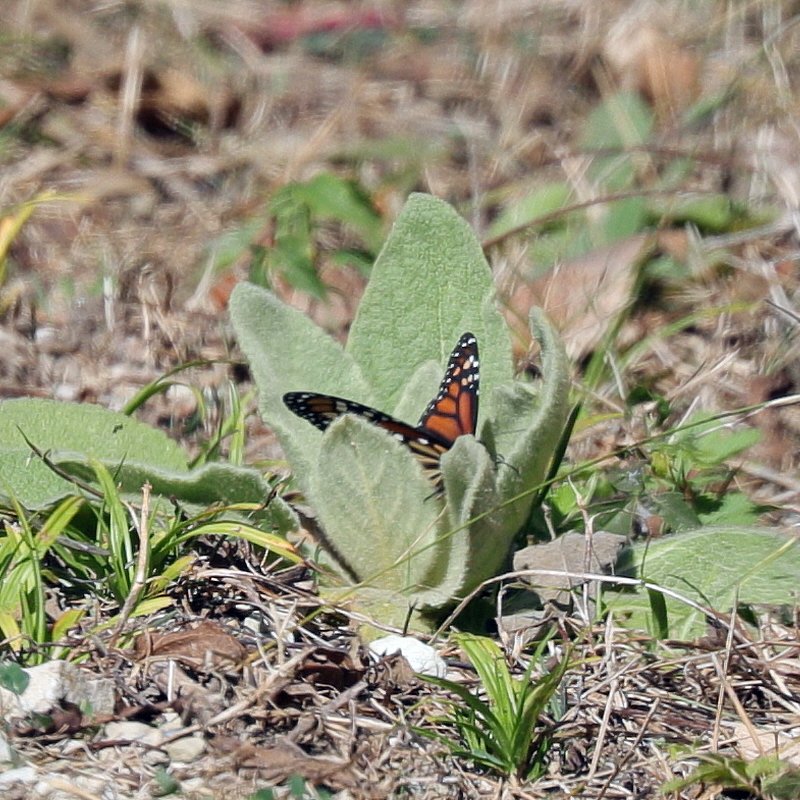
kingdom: Animalia
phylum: Arthropoda
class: Insecta
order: Lepidoptera
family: Nymphalidae
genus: Danaus
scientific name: Danaus plexippus
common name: Monarch
